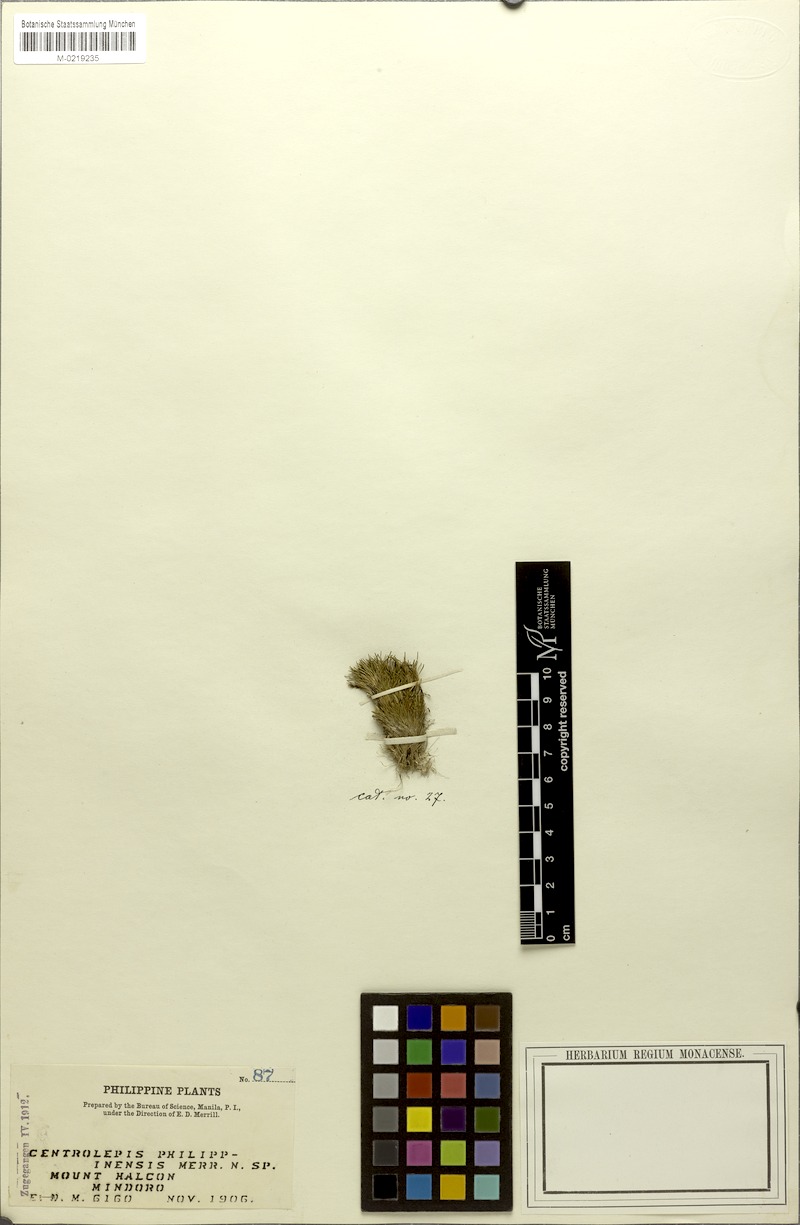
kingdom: Plantae
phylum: Tracheophyta
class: Liliopsida
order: Poales
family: Restionaceae
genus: Centrolepis
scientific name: Centrolepis philippinensis
